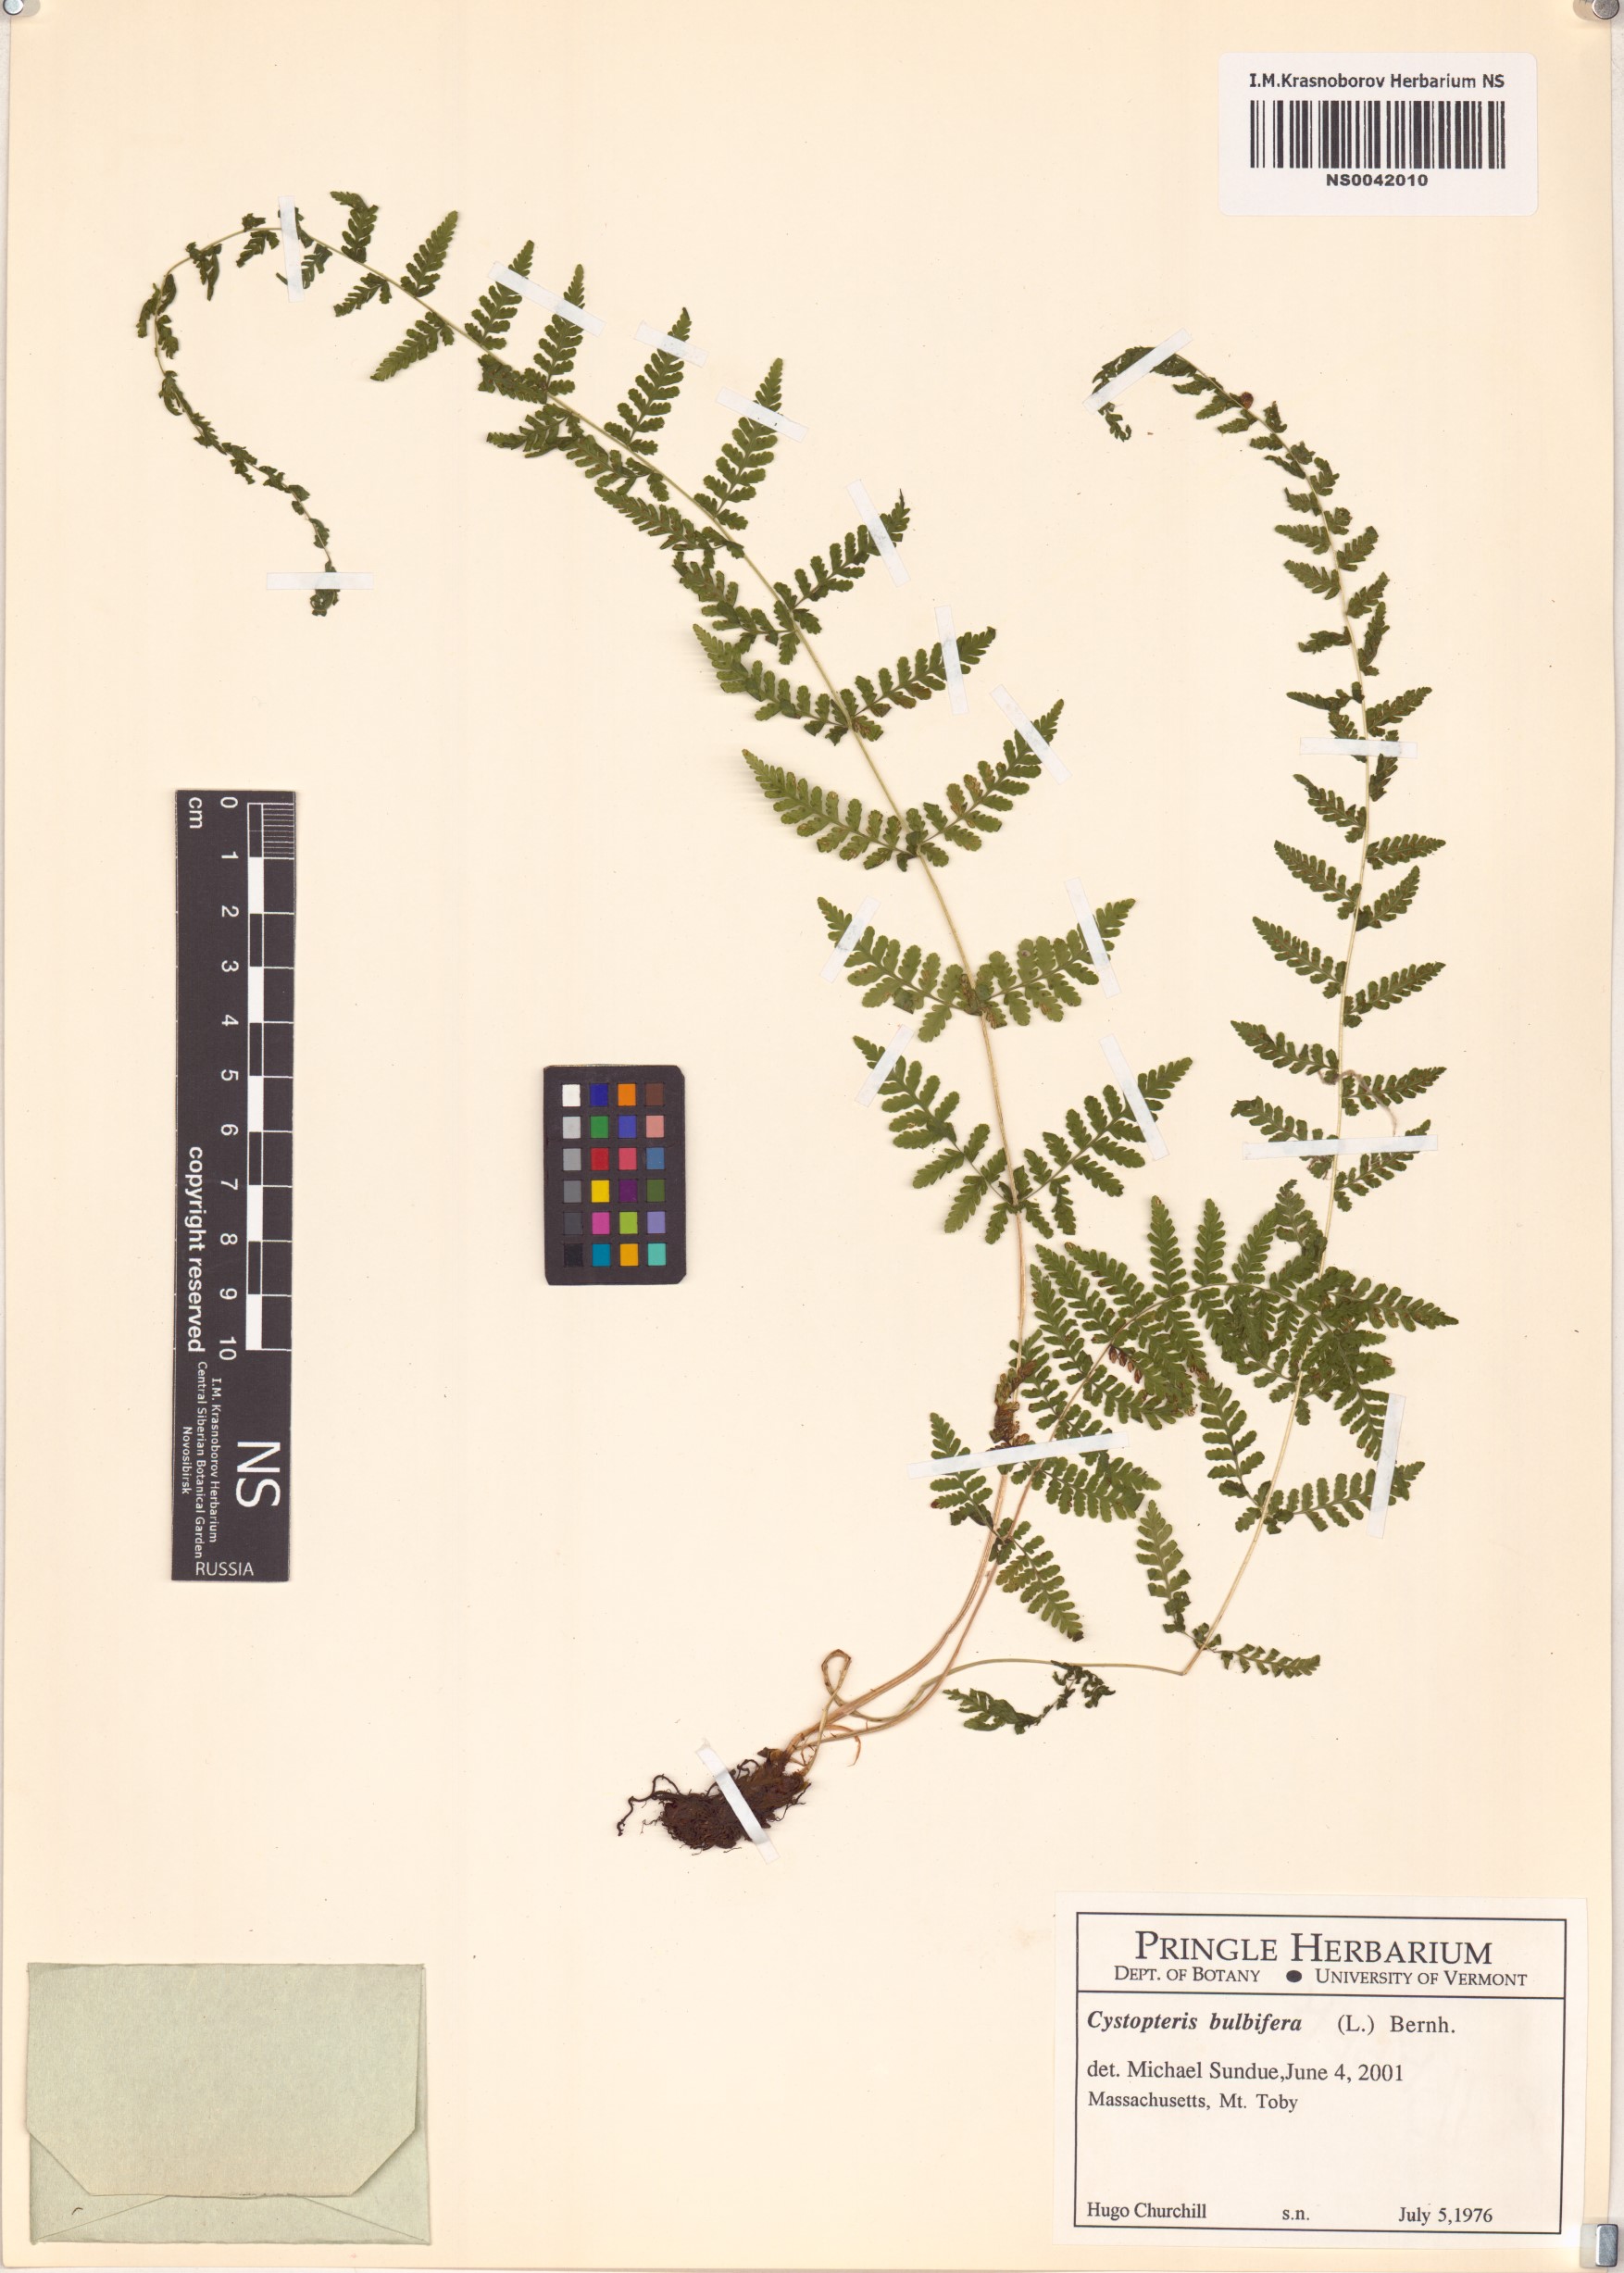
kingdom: Plantae
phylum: Tracheophyta
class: Polypodiopsida
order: Polypodiales
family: Cystopteridaceae
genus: Cystopteris
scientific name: Cystopteris bulbifera
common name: Bulblet bladder fern
